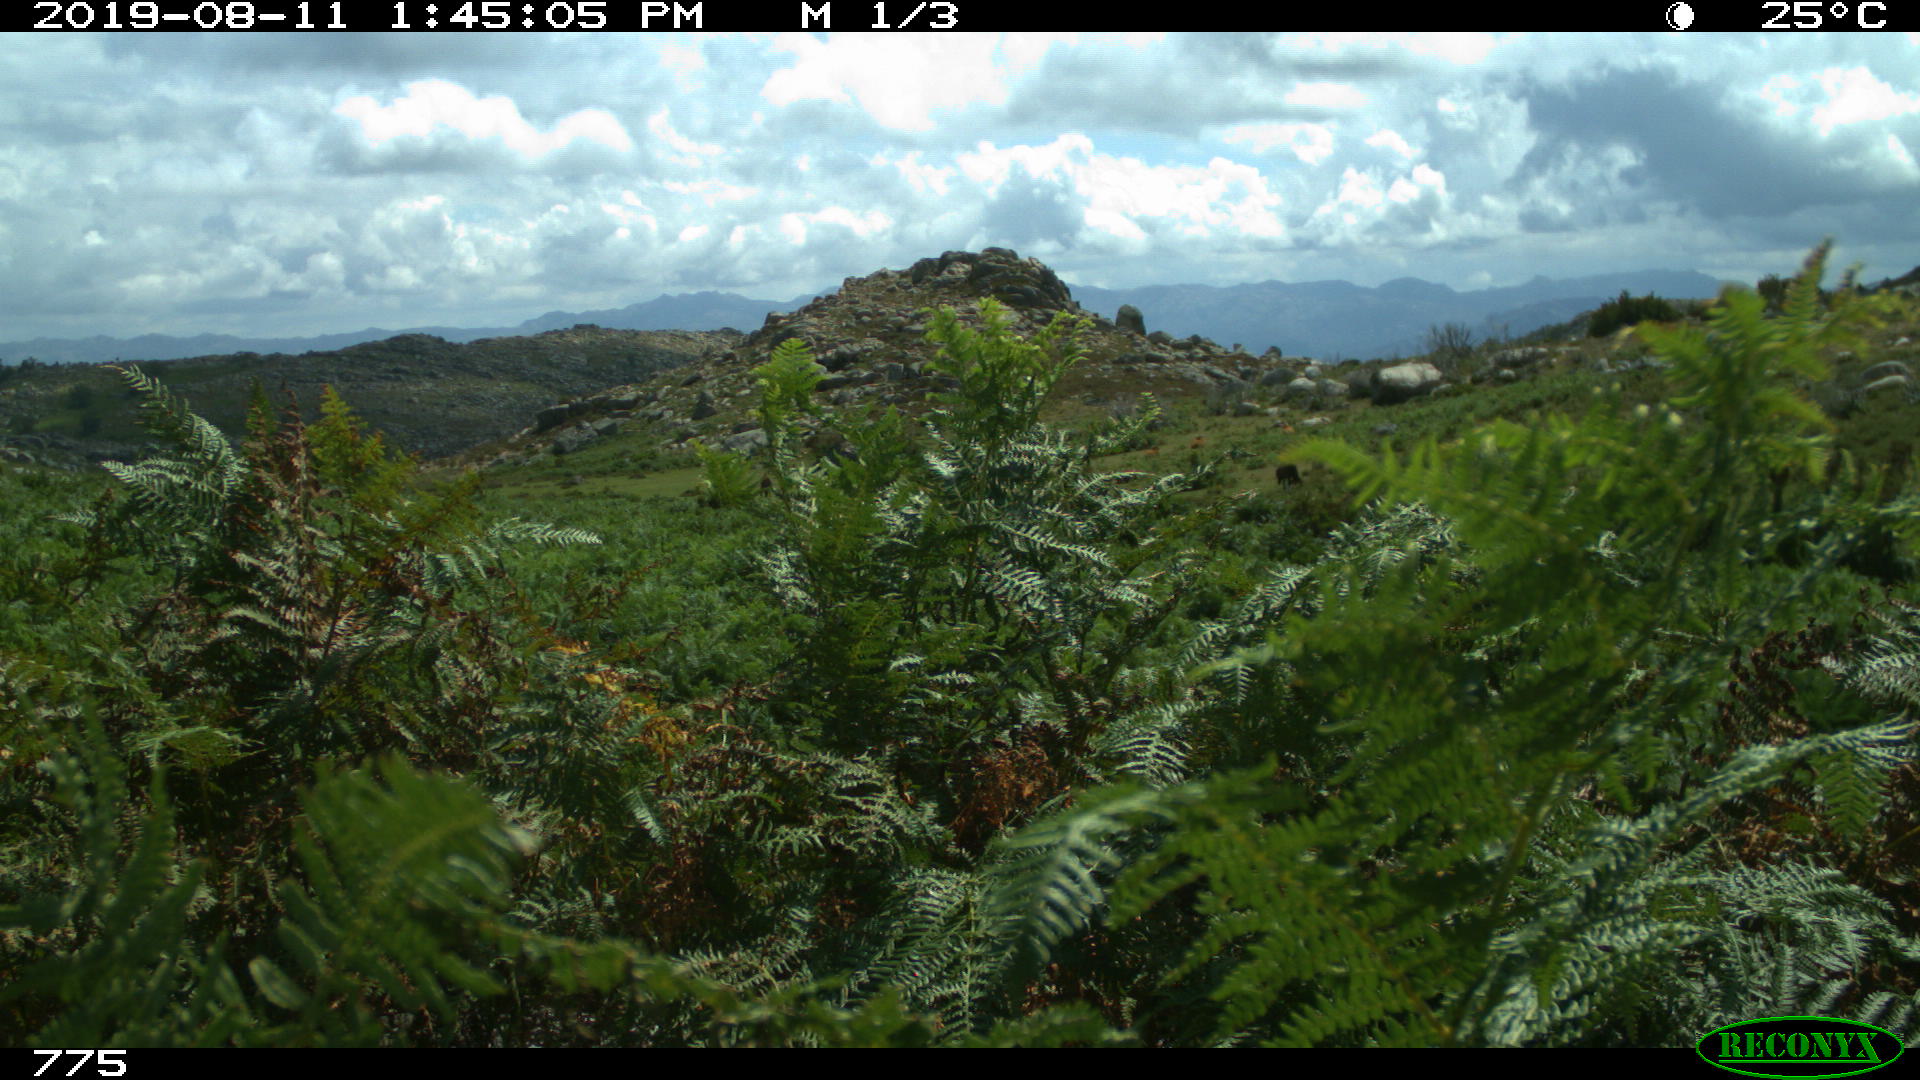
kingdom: Animalia
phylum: Chordata
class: Mammalia
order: Perissodactyla
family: Equidae
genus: Equus
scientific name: Equus caballus
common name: Horse
